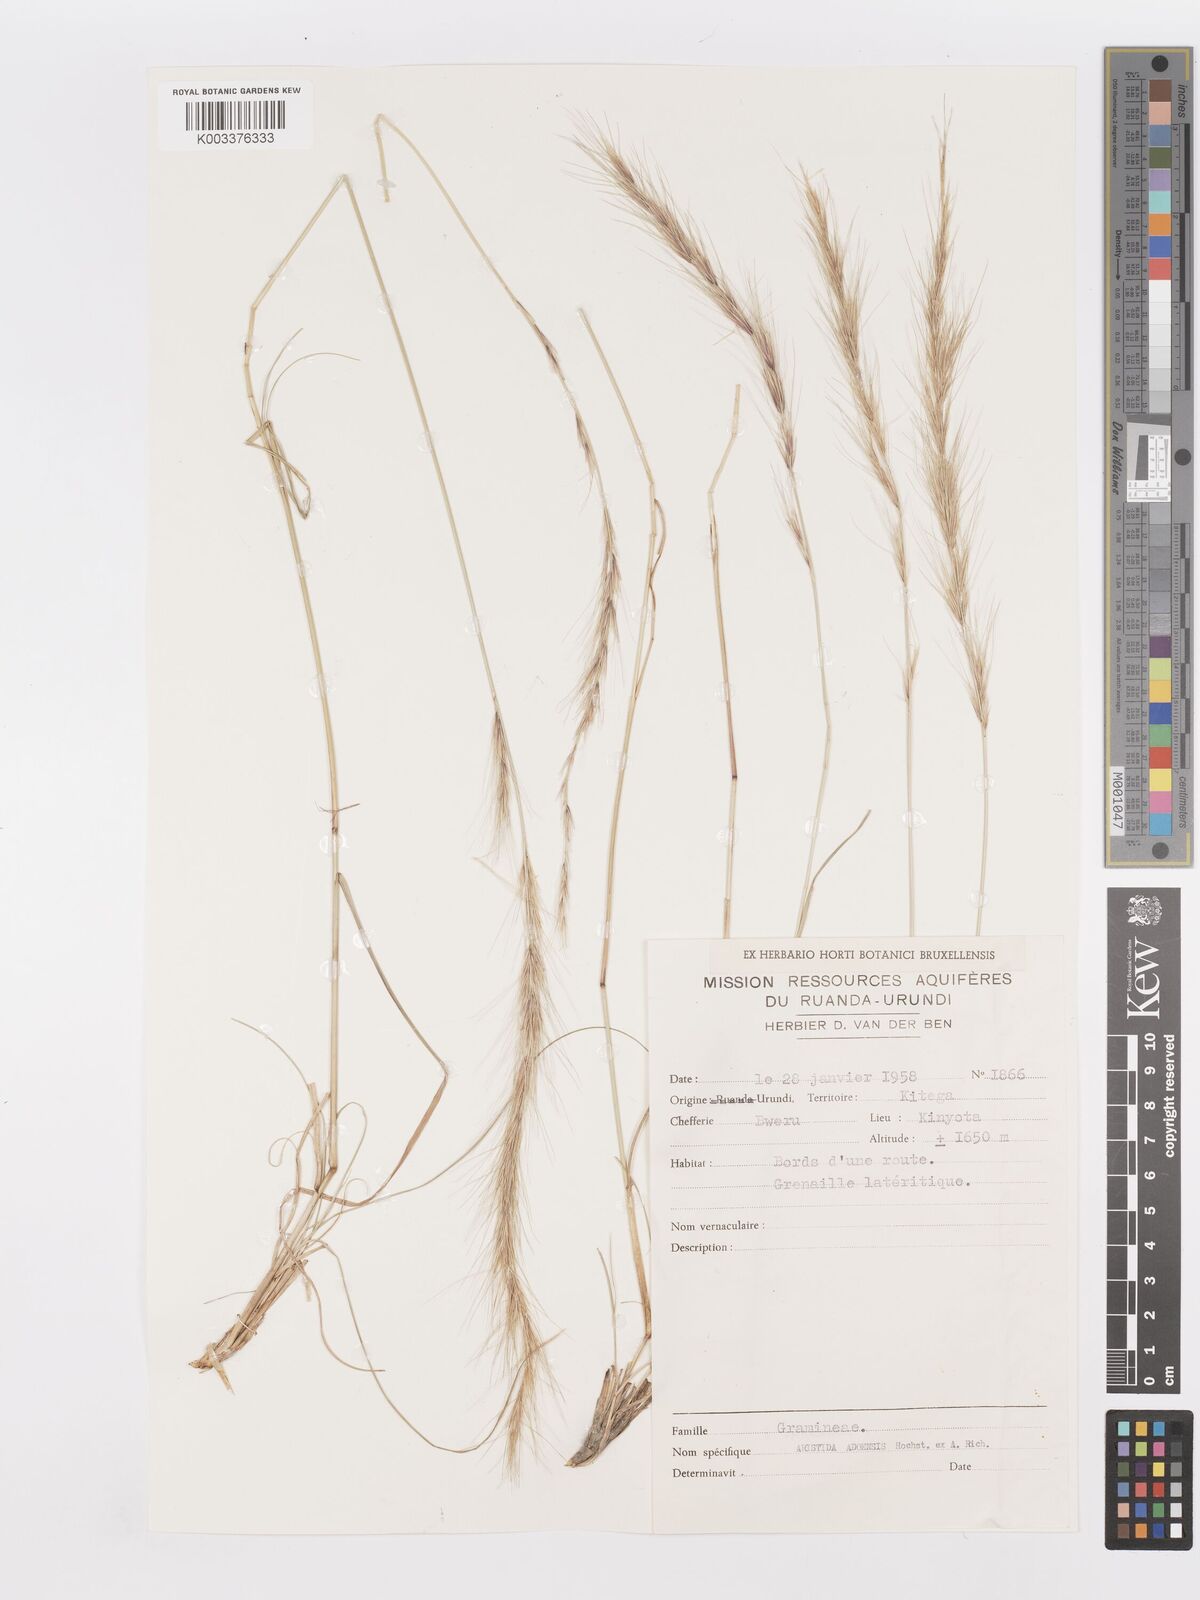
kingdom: Plantae
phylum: Tracheophyta
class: Liliopsida
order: Poales
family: Poaceae
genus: Aristida
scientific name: Aristida adoensis
